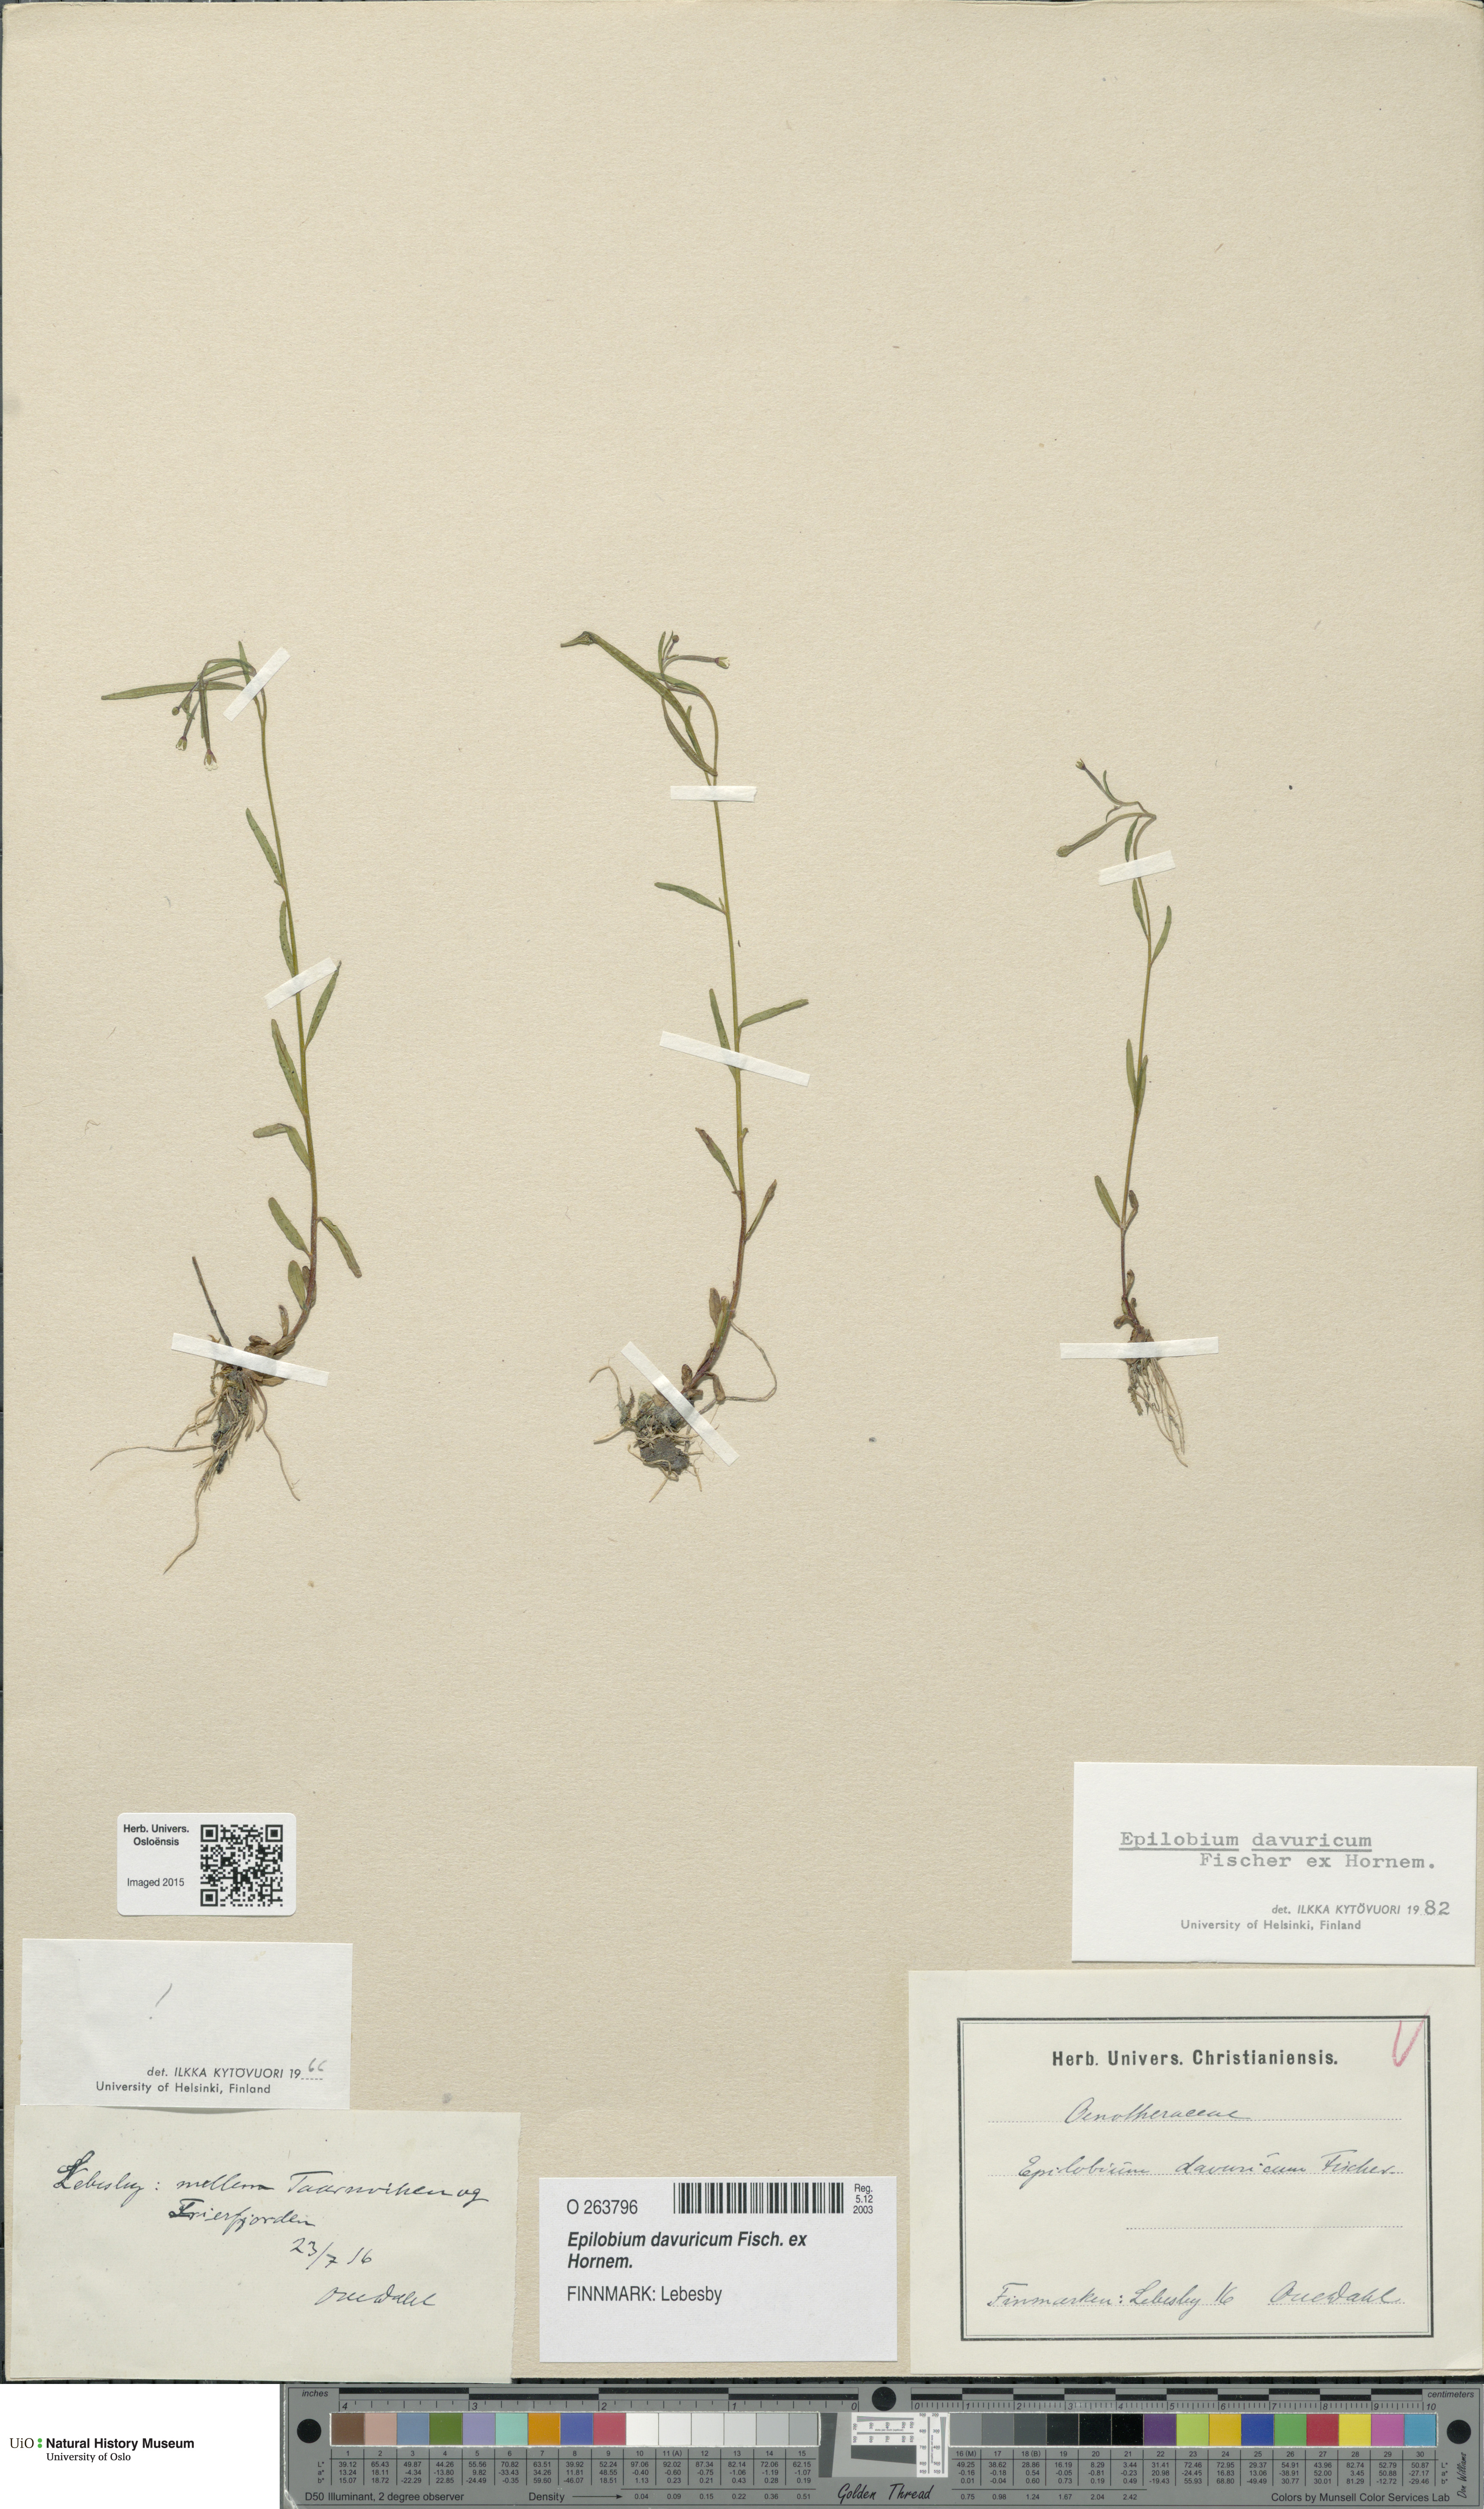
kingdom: Plantae
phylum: Tracheophyta
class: Magnoliopsida
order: Myrtales
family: Onagraceae
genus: Epilobium
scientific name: Epilobium davuricum
